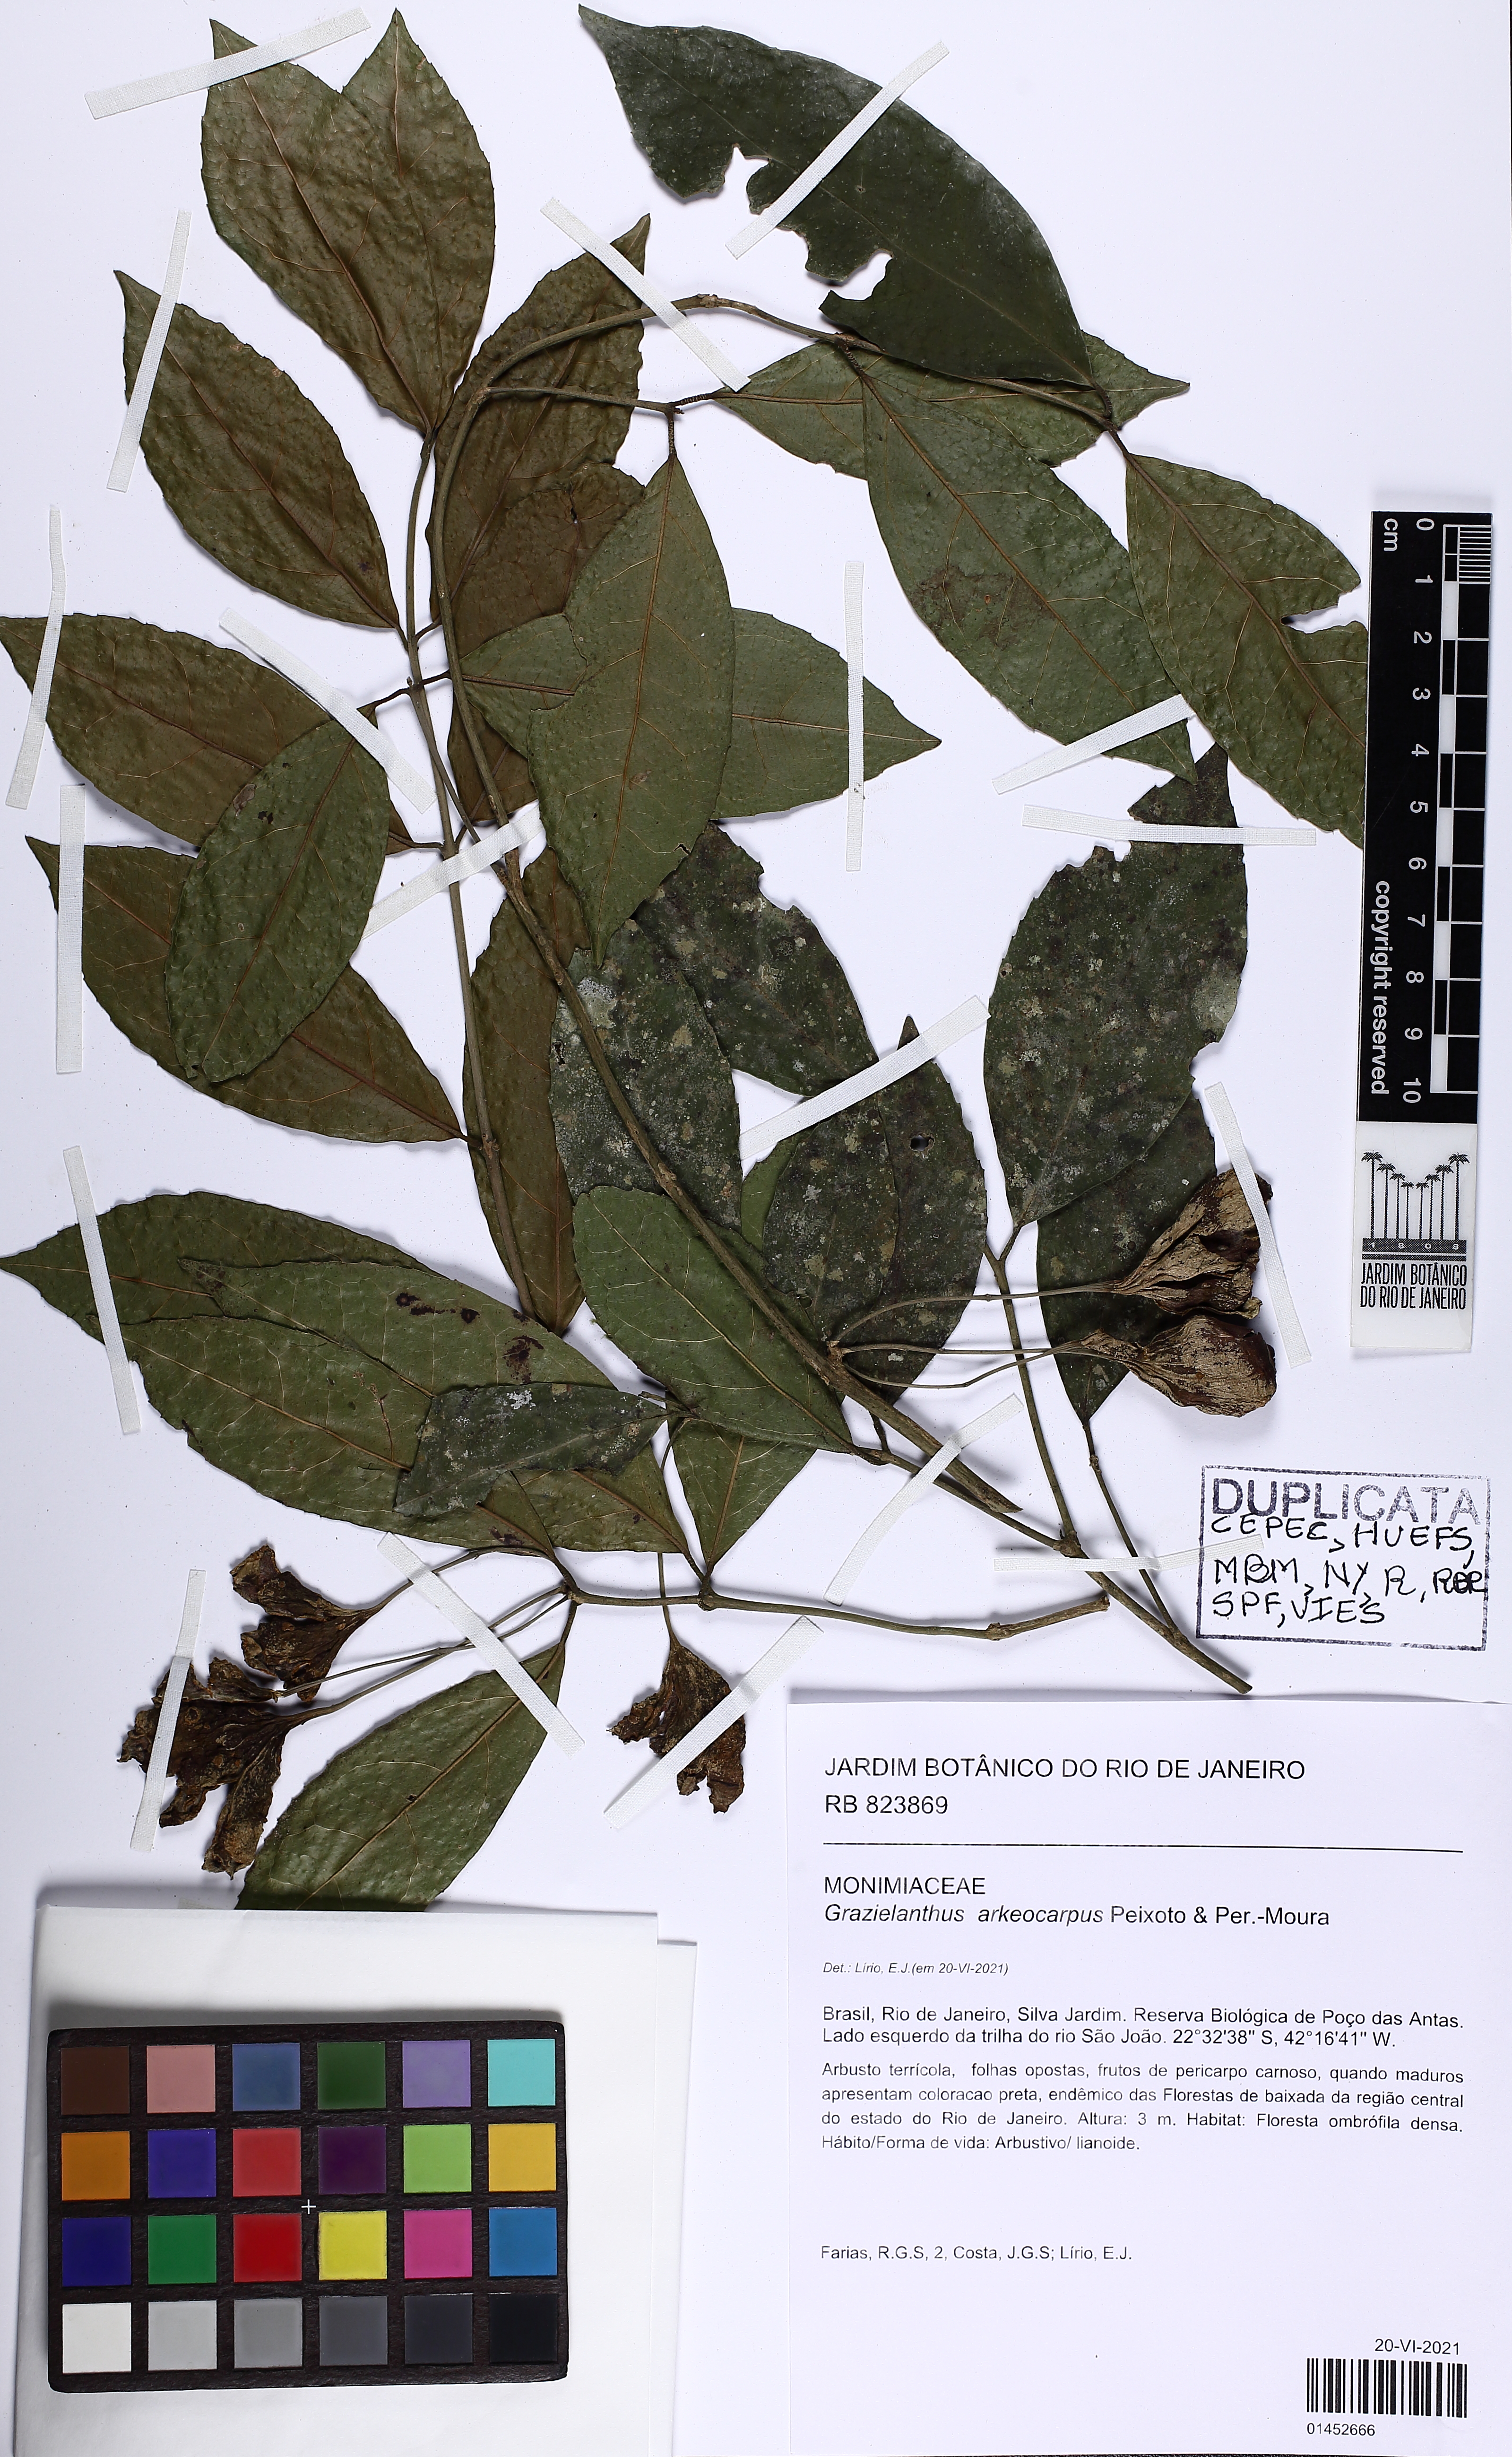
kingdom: Plantae
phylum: Tracheophyta
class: Magnoliopsida
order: Laurales
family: Monimiaceae
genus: Grazielanthus
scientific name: Grazielanthus arkeocarpus
